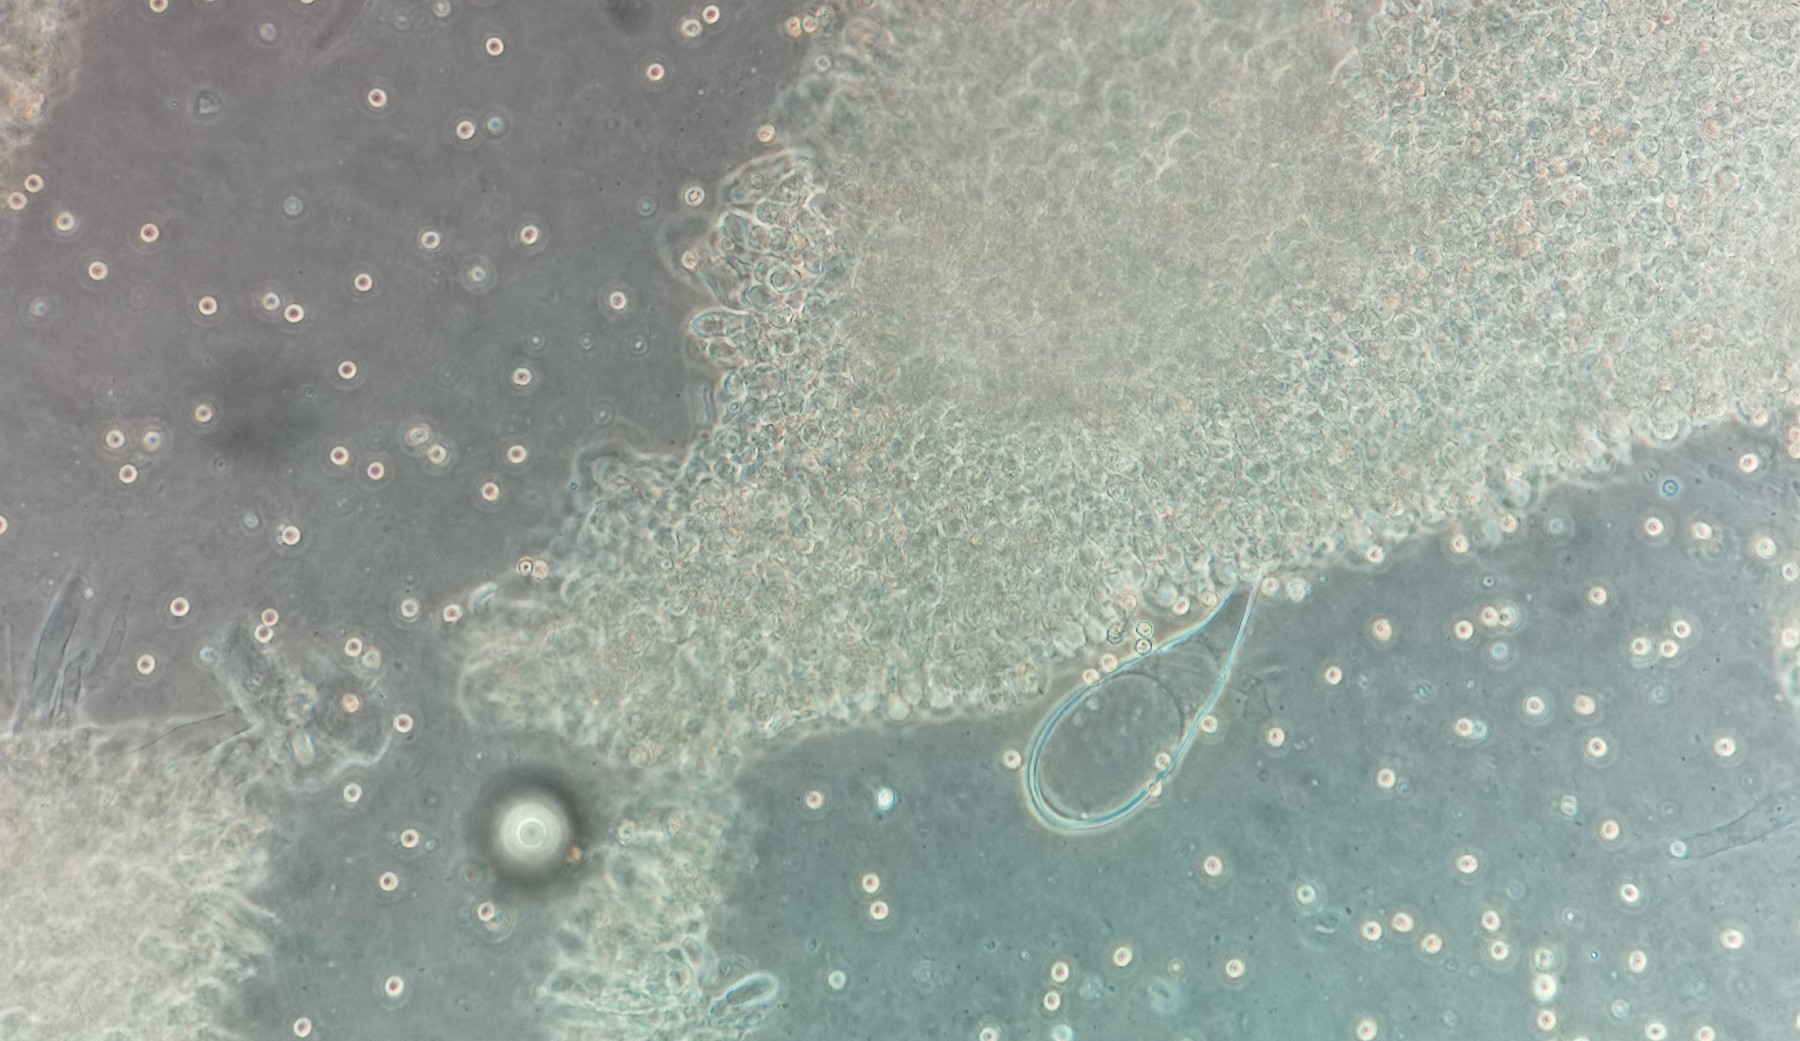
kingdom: Fungi
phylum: Basidiomycota
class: Agaricomycetes
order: Agaricales
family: Pluteaceae
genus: Pluteus
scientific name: Pluteus
